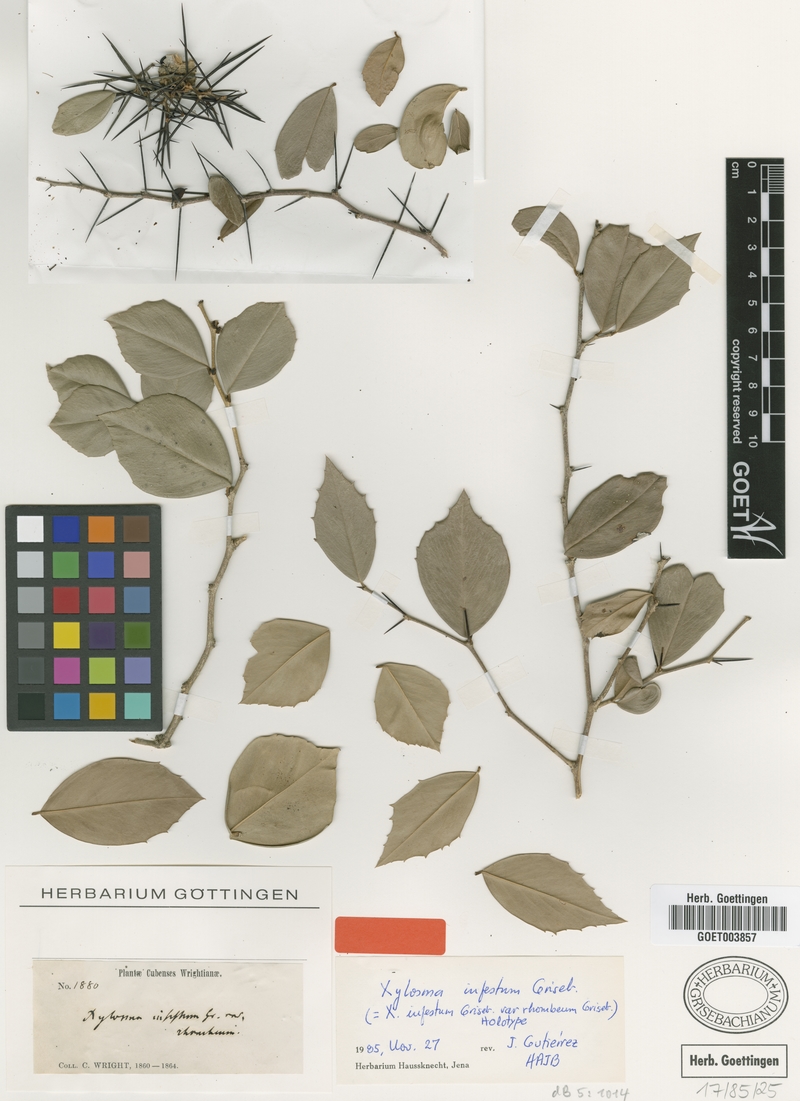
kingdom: Plantae
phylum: Tracheophyta
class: Magnoliopsida
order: Malpighiales
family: Salicaceae
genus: Xylosma
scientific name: Xylosma buxifolia
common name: Cockspur
